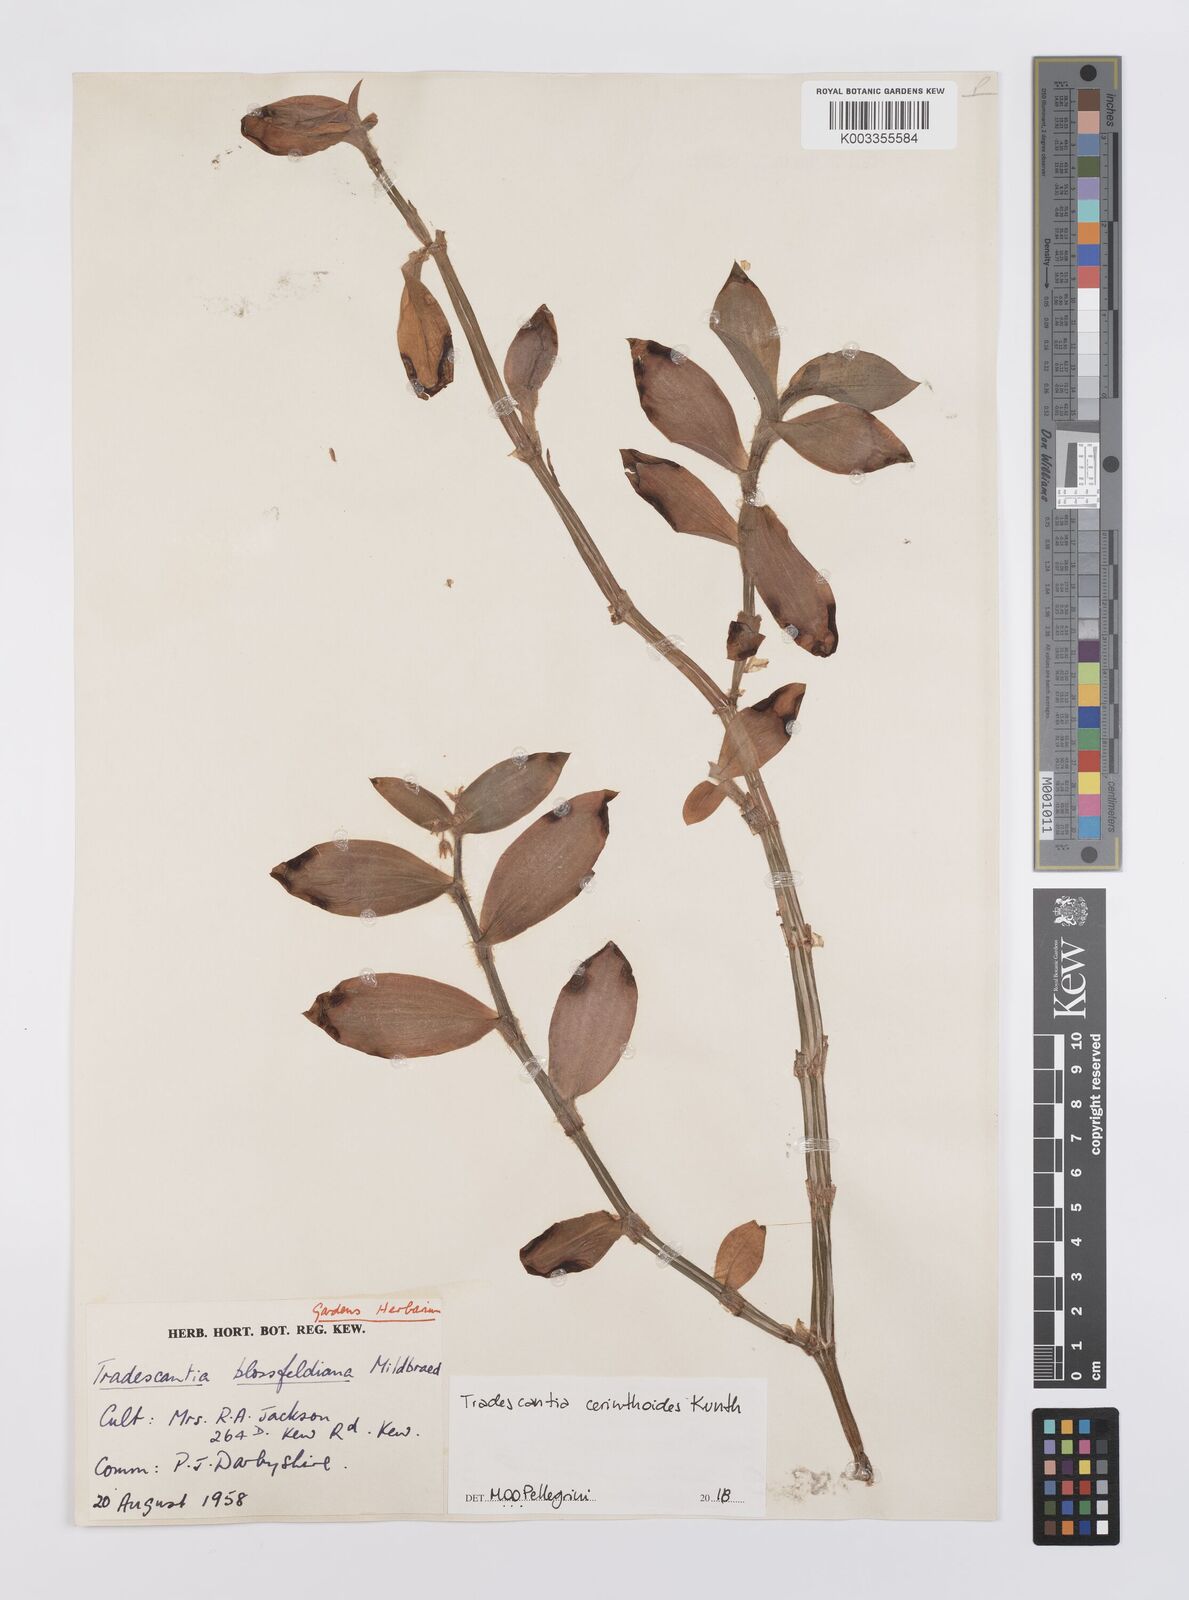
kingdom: Plantae
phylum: Tracheophyta
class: Liliopsida
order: Commelinales
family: Commelinaceae
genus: Tradescantia
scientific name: Tradescantia cerinthoides
